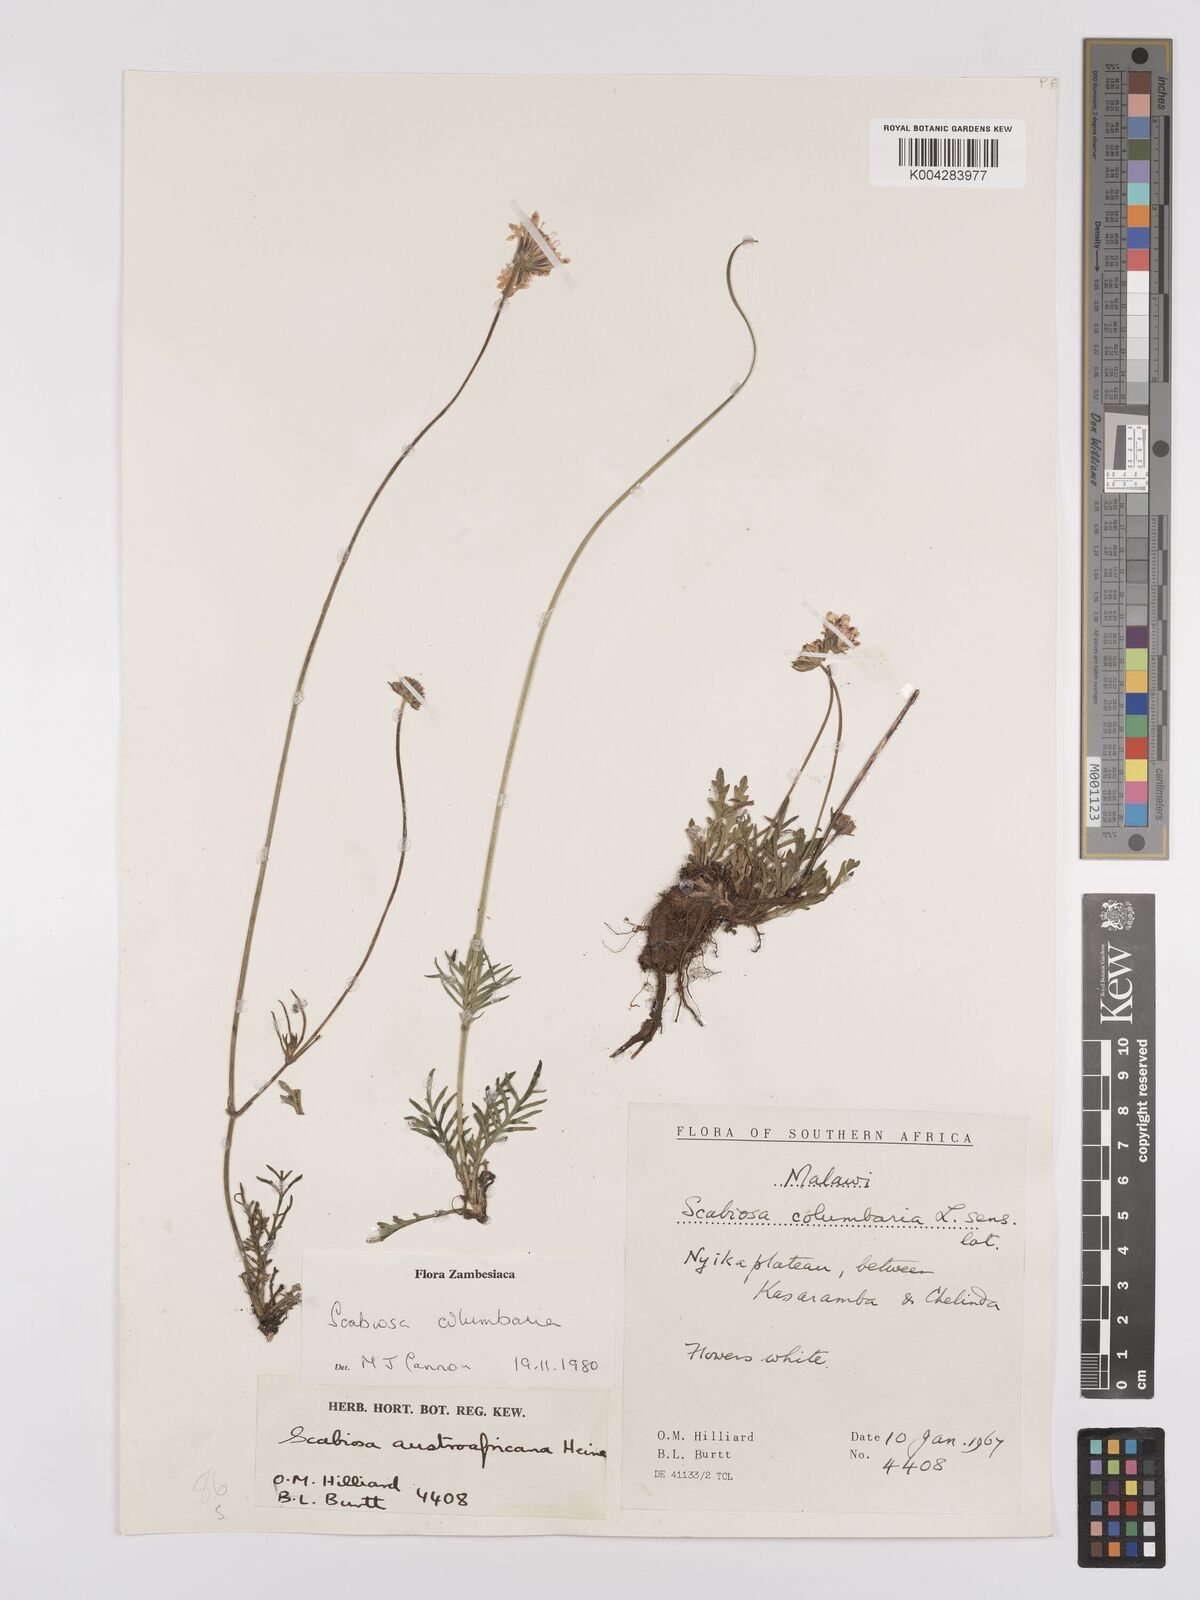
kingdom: Plantae
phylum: Tracheophyta
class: Magnoliopsida
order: Dipsacales
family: Caprifoliaceae
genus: Scabiosa
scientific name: Scabiosa columbaria
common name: Small scabious
